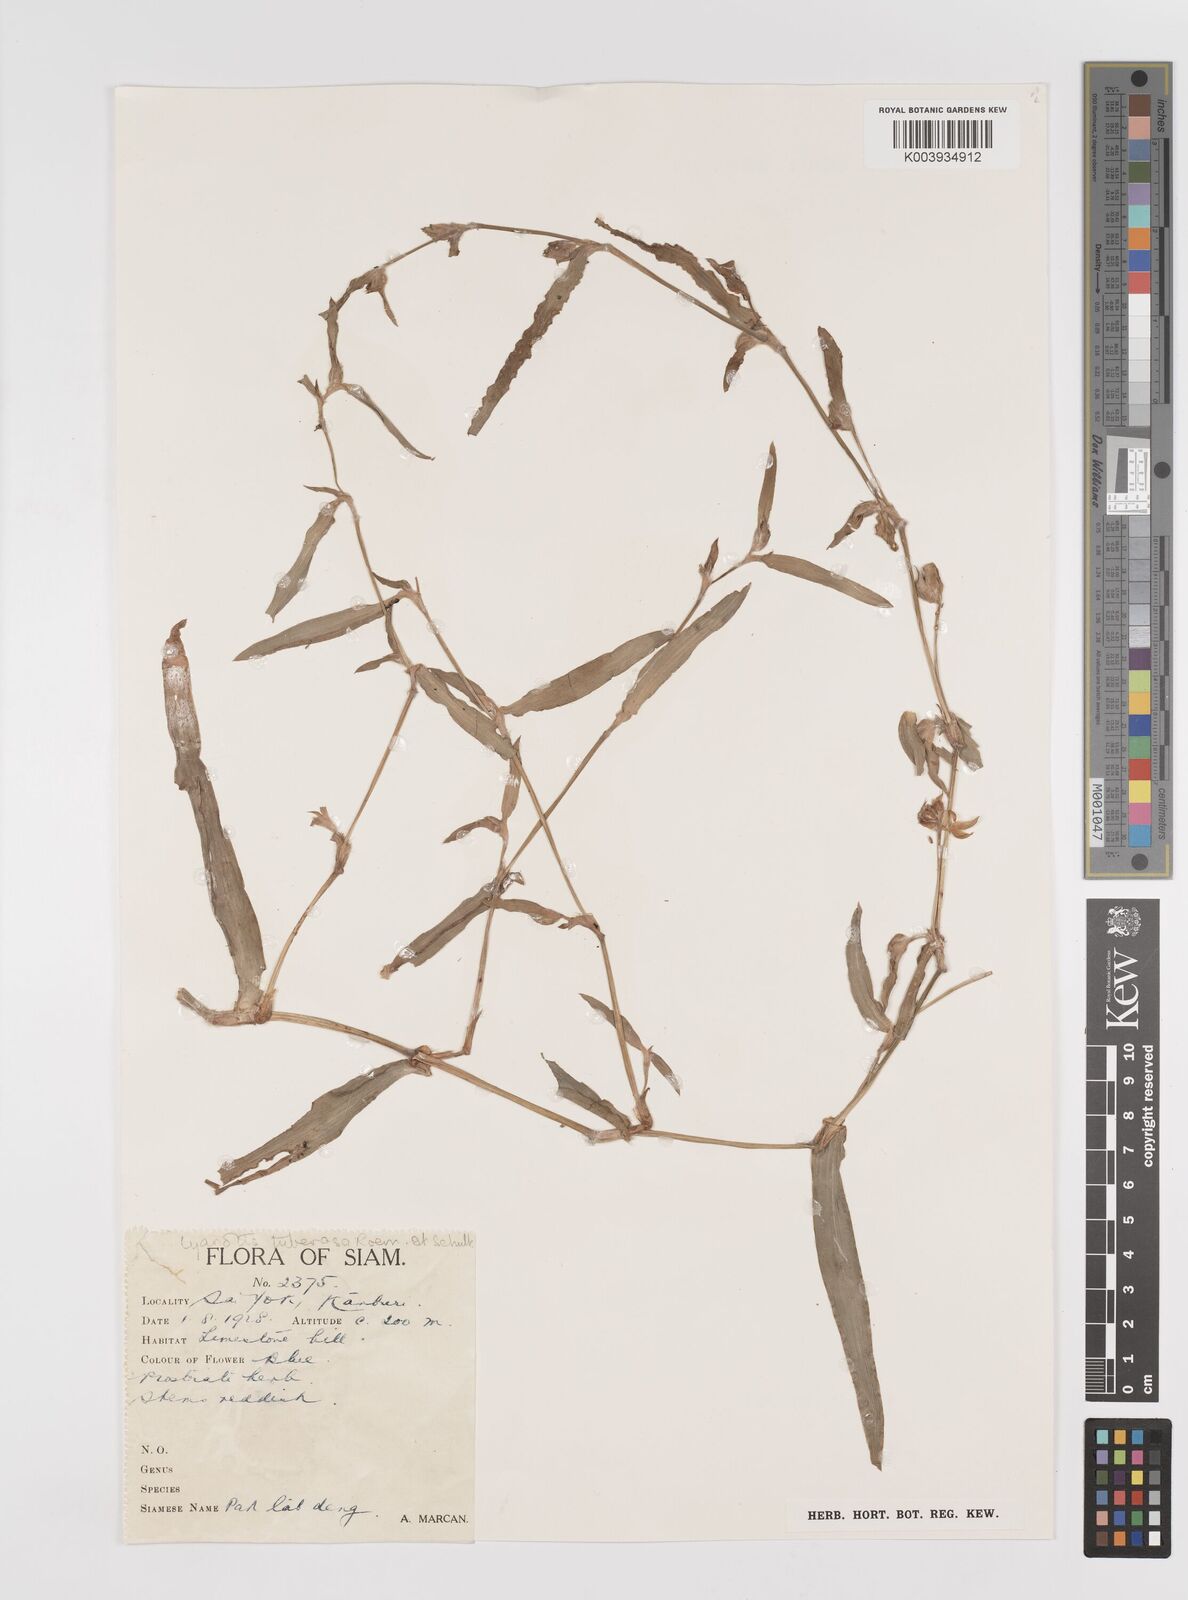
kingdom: Plantae
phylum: Tracheophyta
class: Liliopsida
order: Commelinales
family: Commelinaceae
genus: Cyanotis
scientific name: Cyanotis fasciculata
